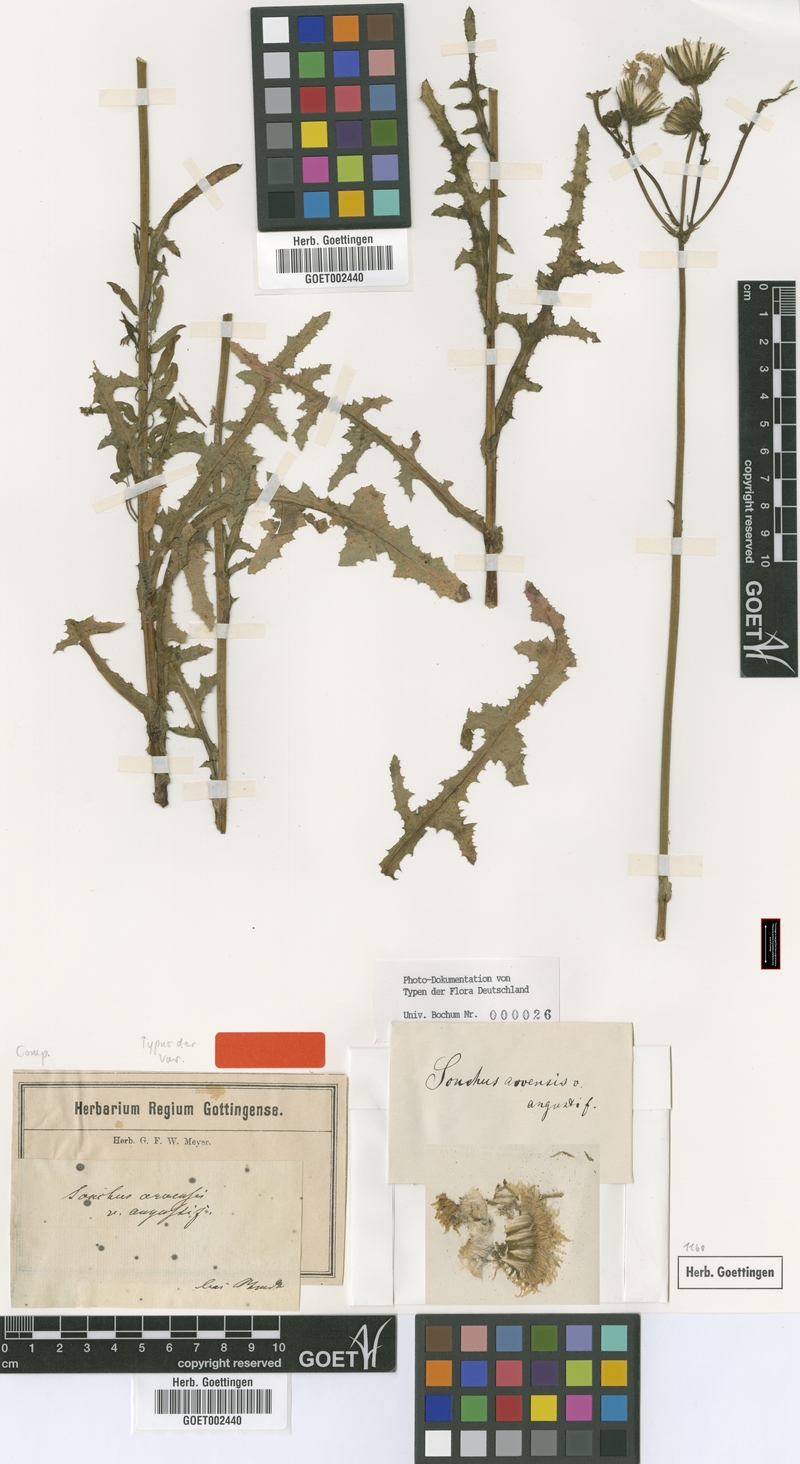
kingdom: Plantae
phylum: Tracheophyta
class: Magnoliopsida
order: Asterales
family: Asteraceae
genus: Sonchus
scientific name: Sonchus arvensis
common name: Perennial sow-thistle
